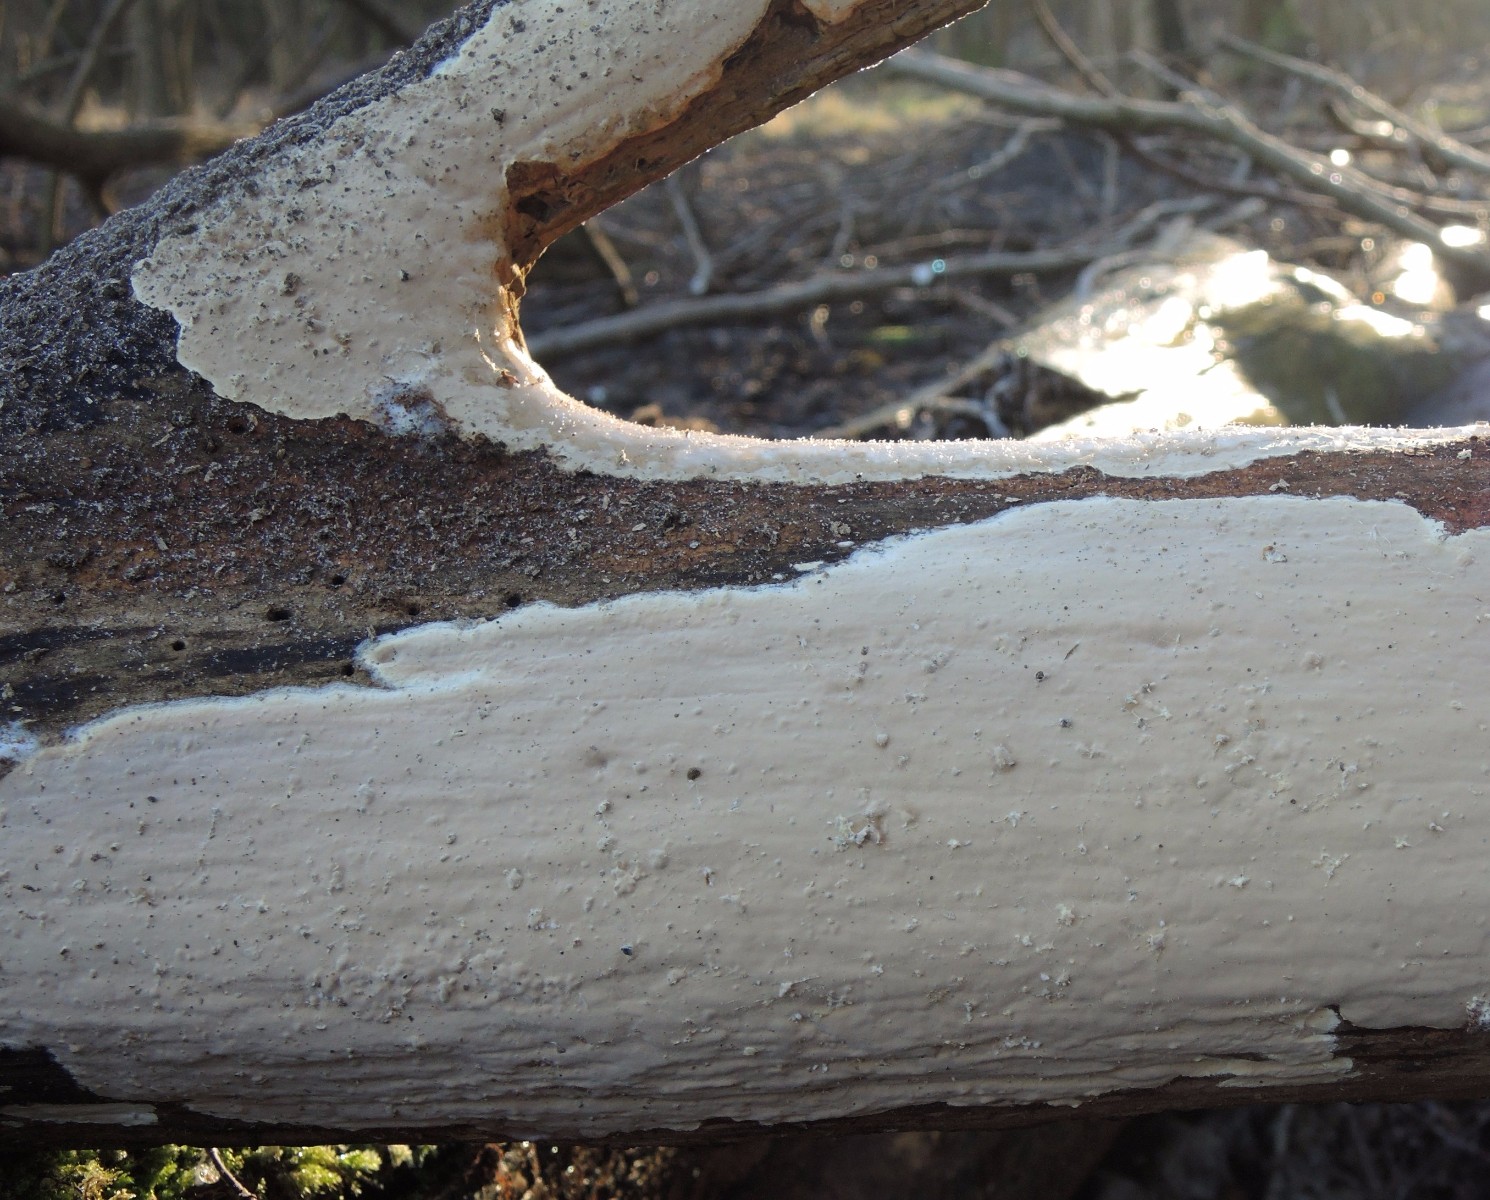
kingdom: Fungi
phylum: Basidiomycota
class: Agaricomycetes
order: Russulales
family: Peniophoraceae
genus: Scytinostroma
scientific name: Scytinostroma hemidichophyticum
